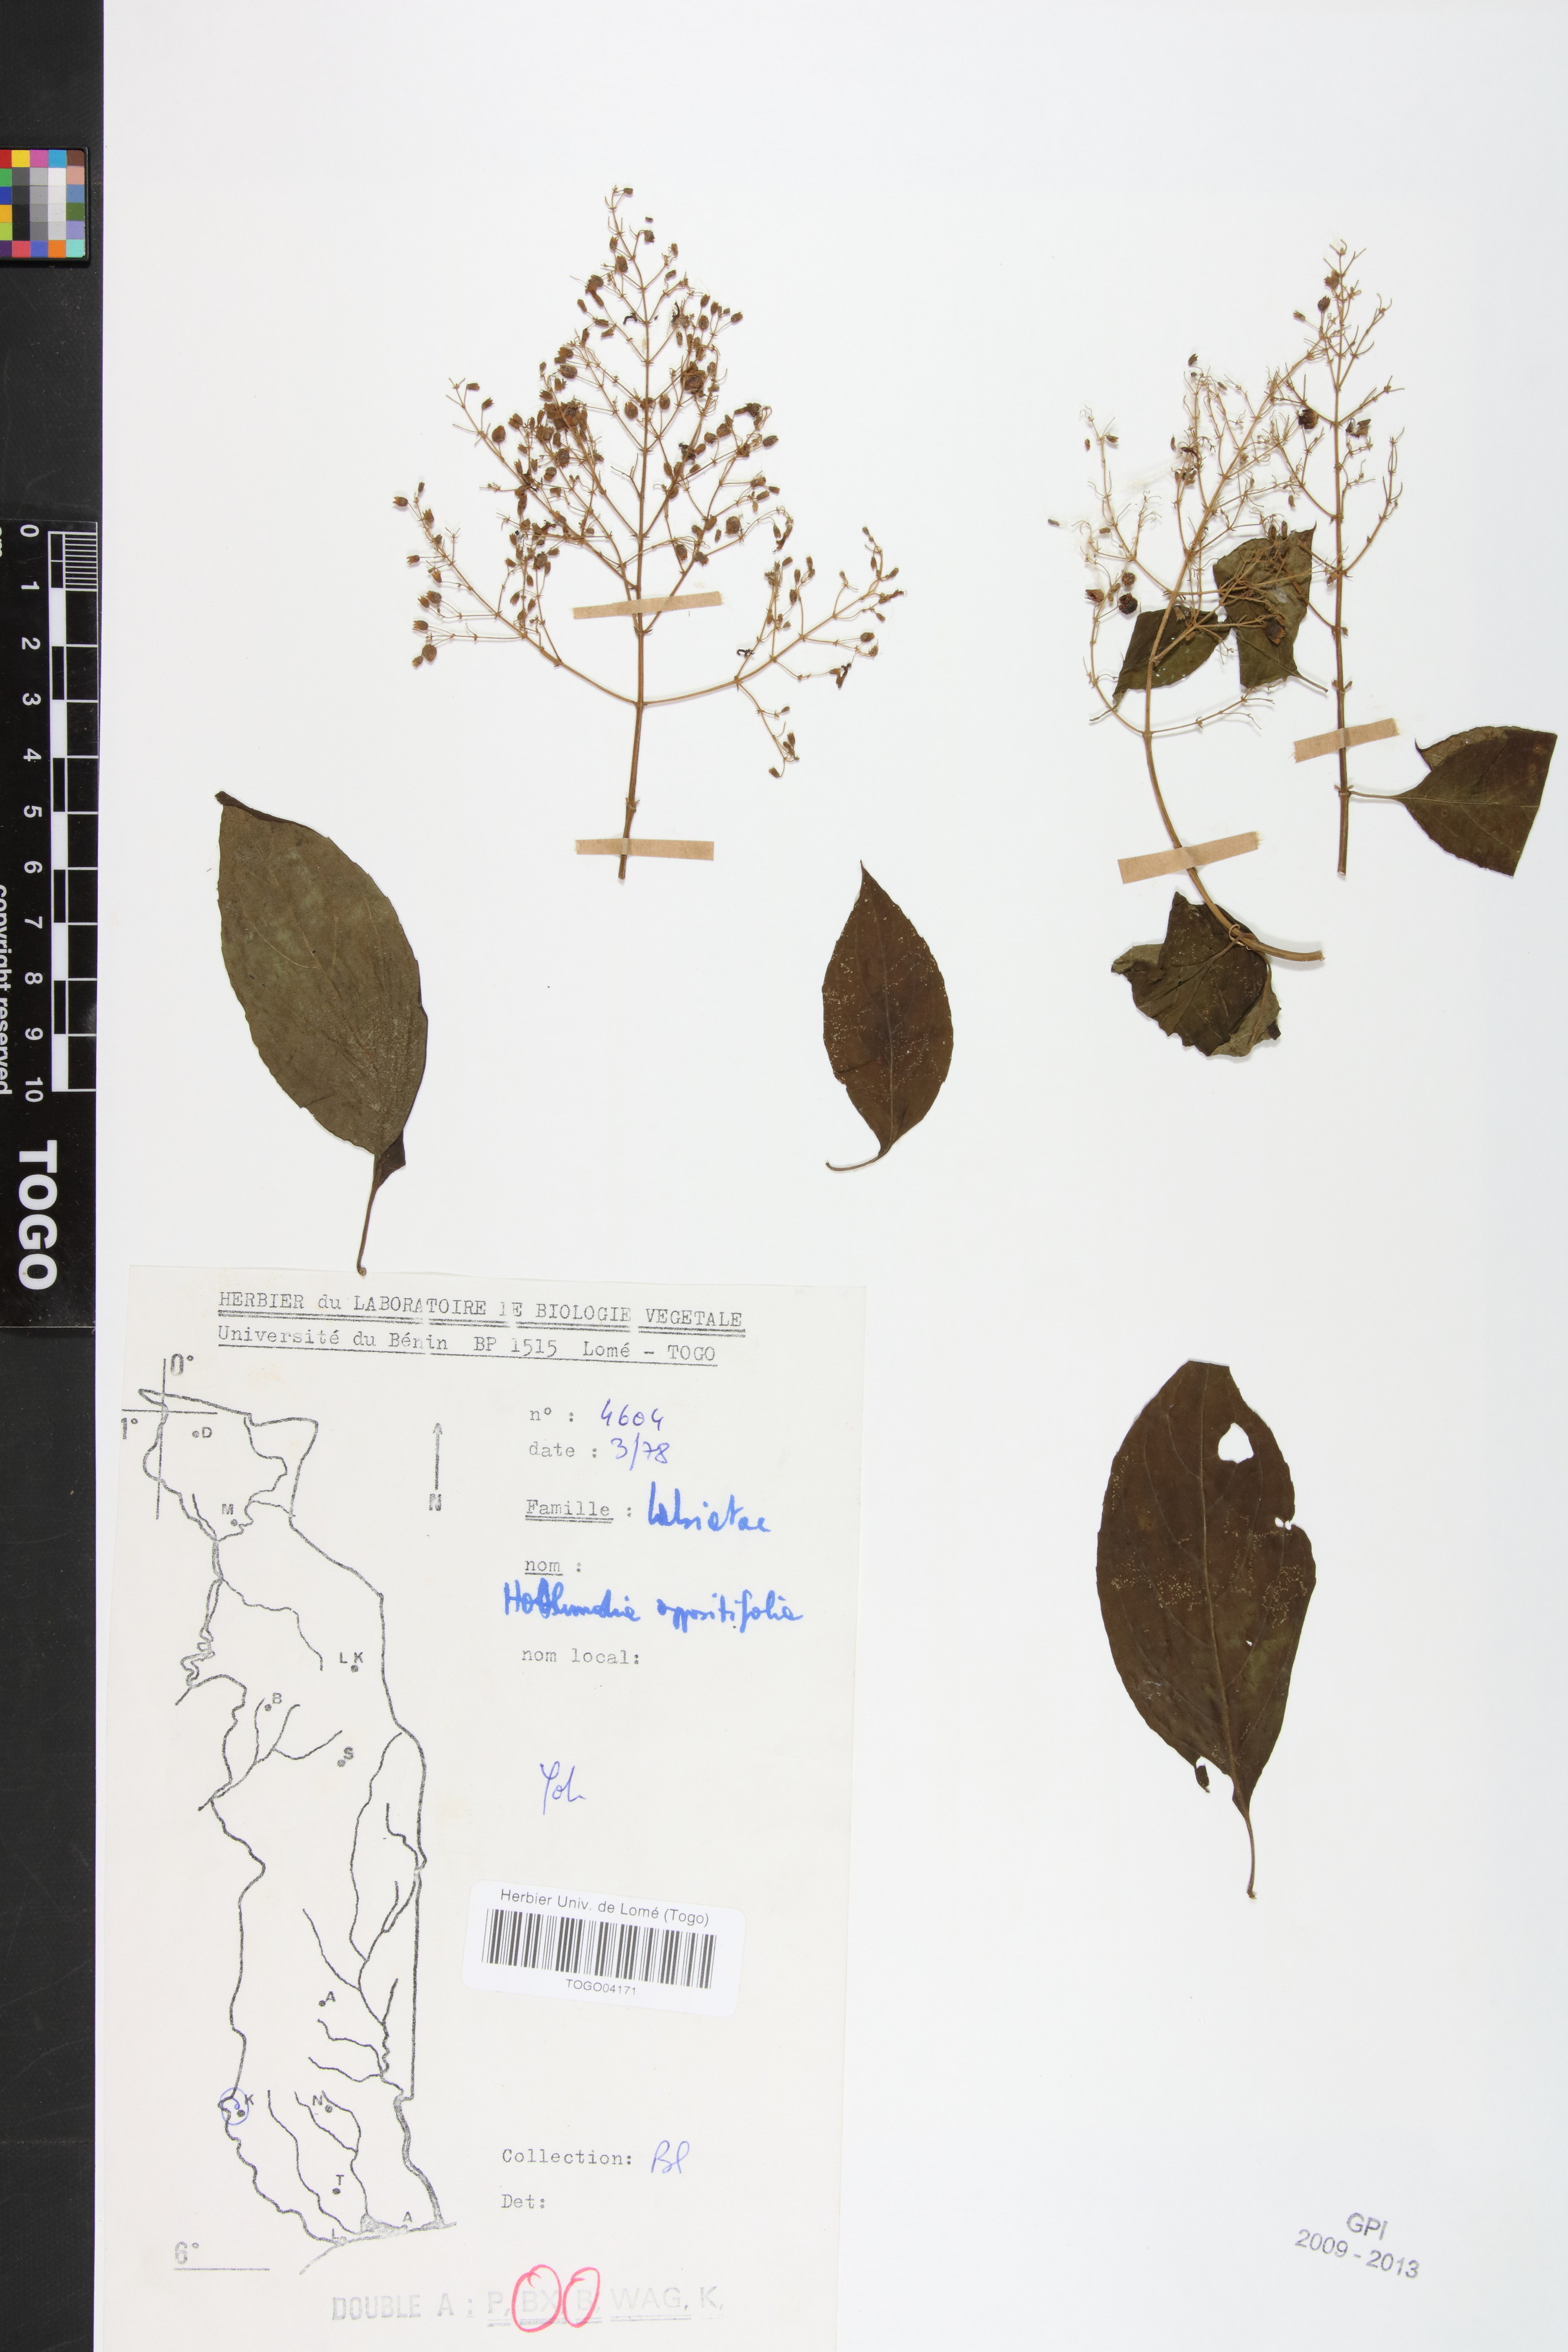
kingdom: Plantae
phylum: Tracheophyta
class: Magnoliopsida
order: Lamiales
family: Lamiaceae
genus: Hoslundia
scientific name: Hoslundia opposita
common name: Kamyuye
